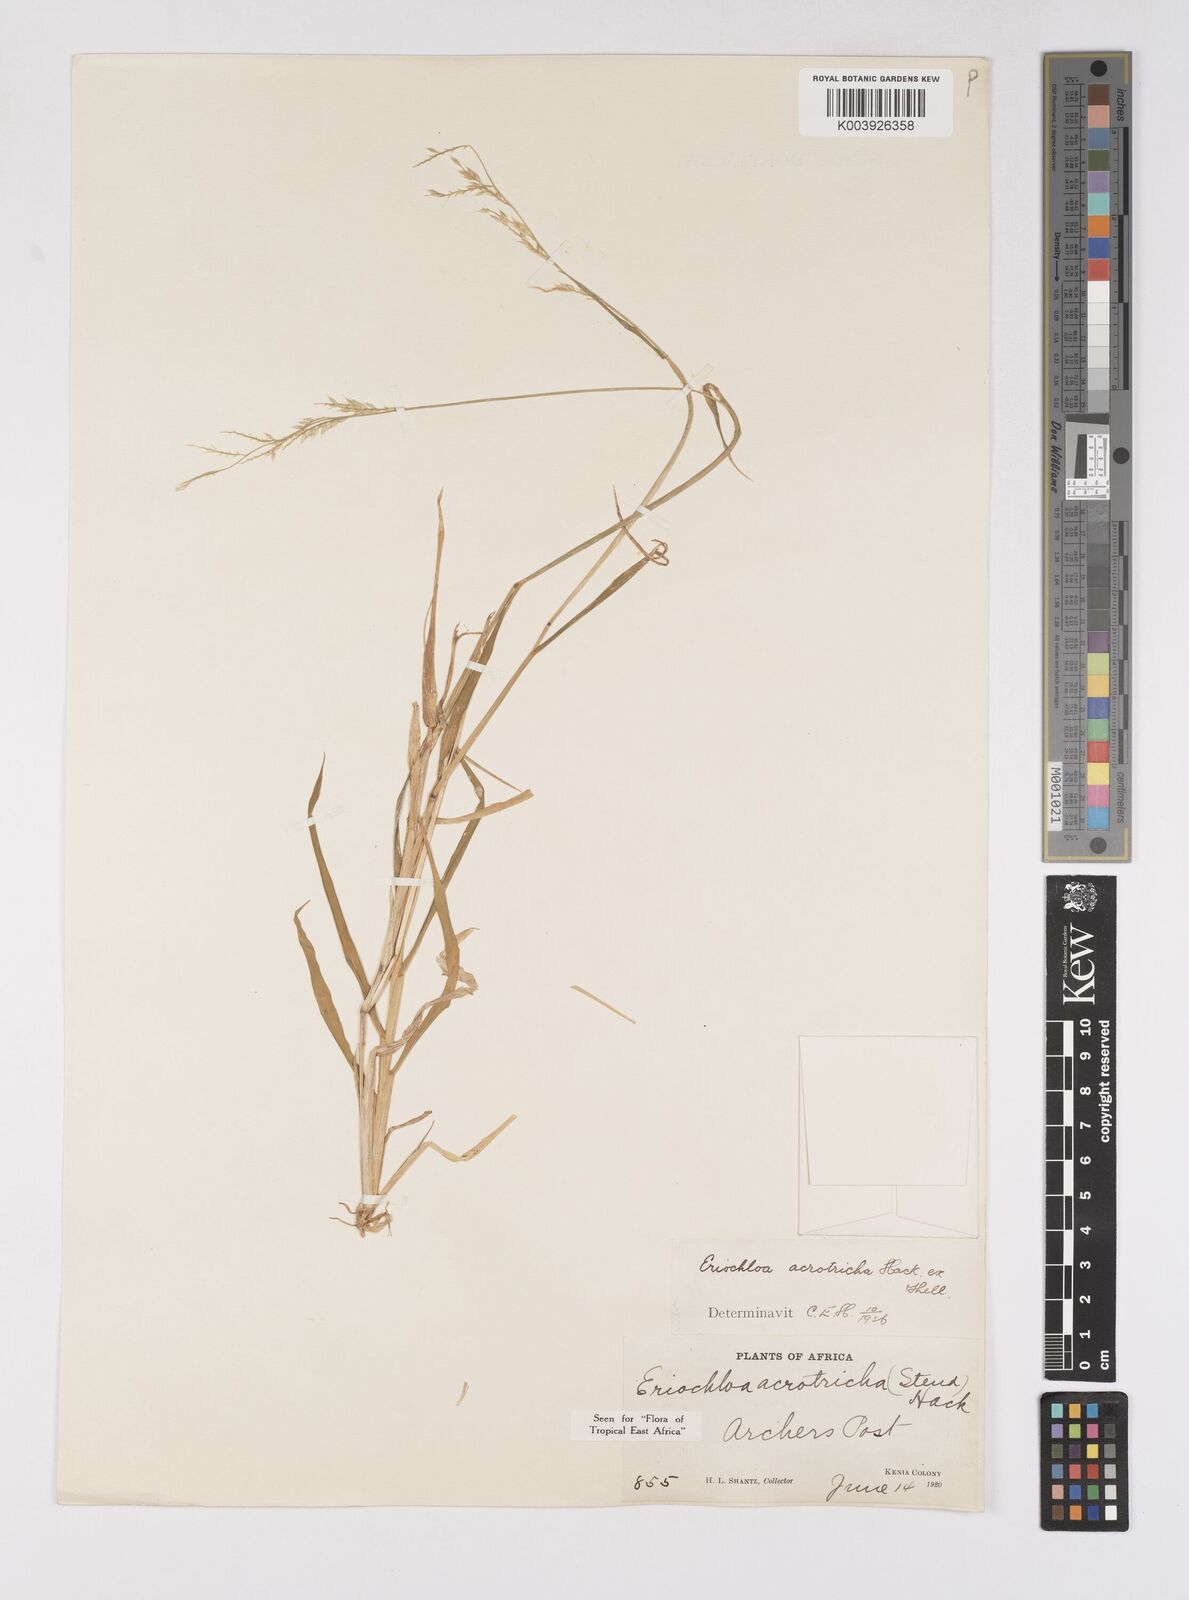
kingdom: Plantae
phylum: Tracheophyta
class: Liliopsida
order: Poales
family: Poaceae
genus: Eriochloa
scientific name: Eriochloa barbatus
